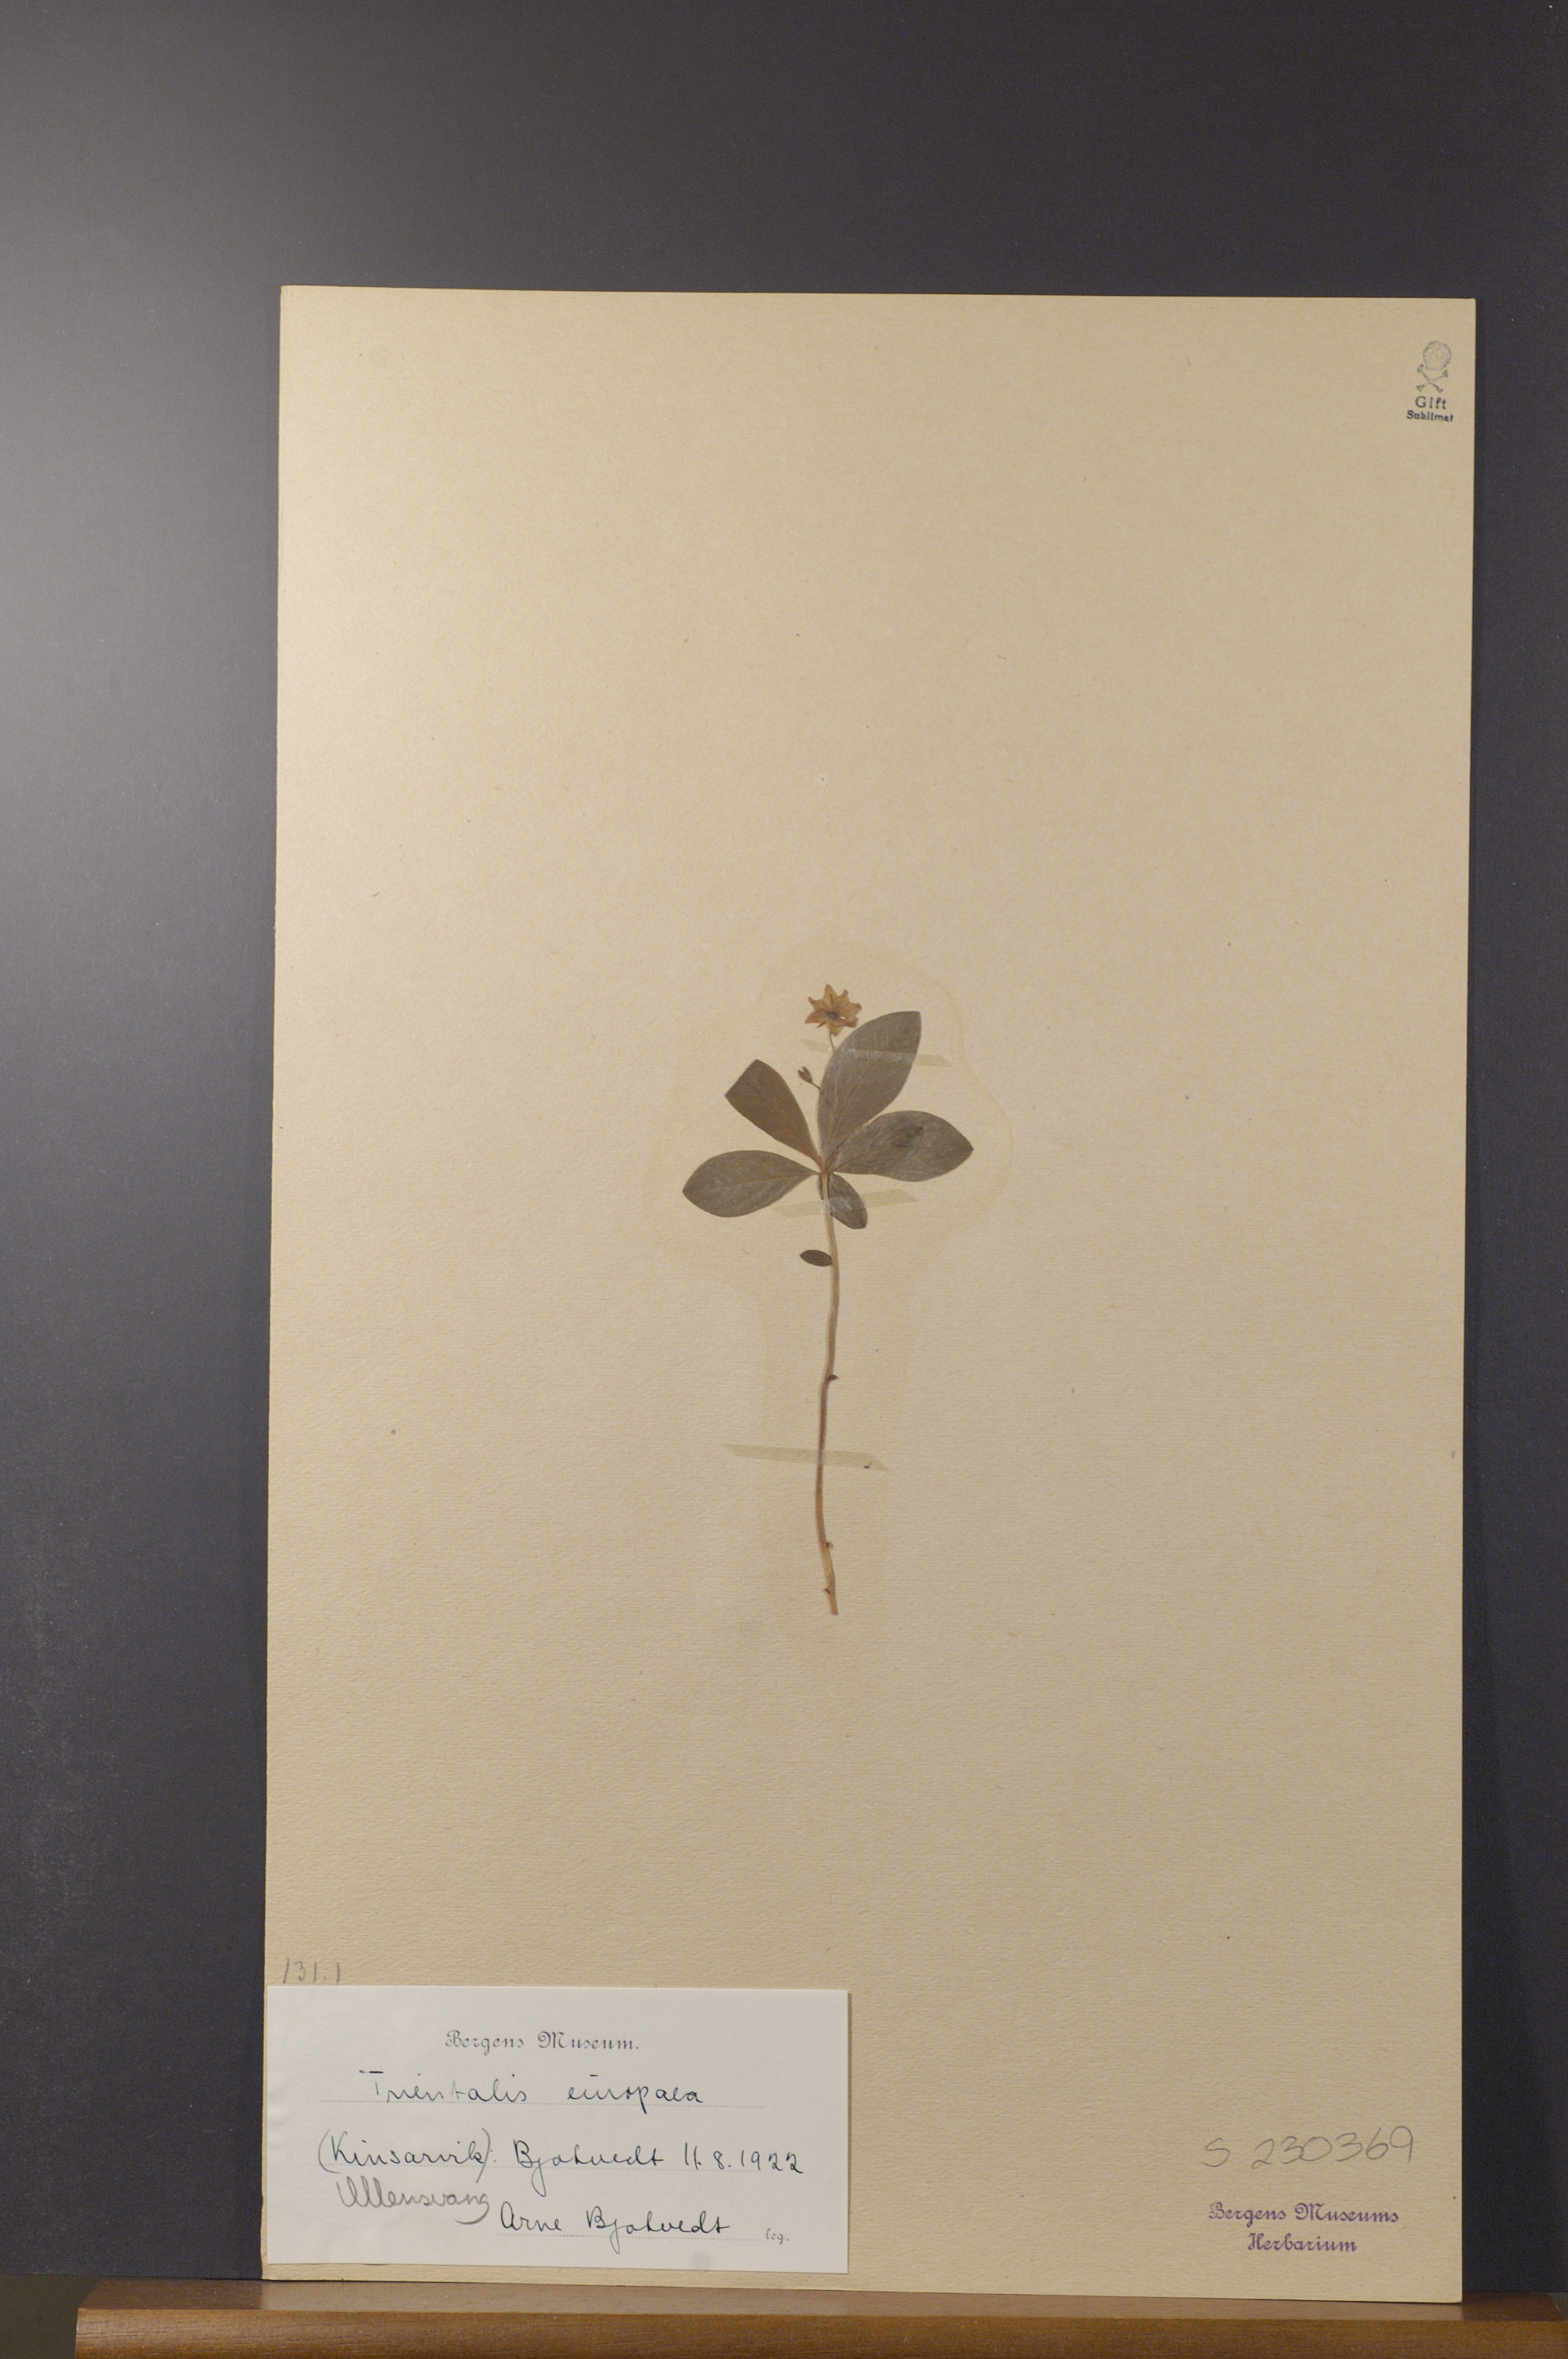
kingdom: Plantae
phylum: Tracheophyta
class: Magnoliopsida
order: Ericales
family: Primulaceae
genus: Lysimachia
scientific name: Lysimachia europaea
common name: Arctic starflower
